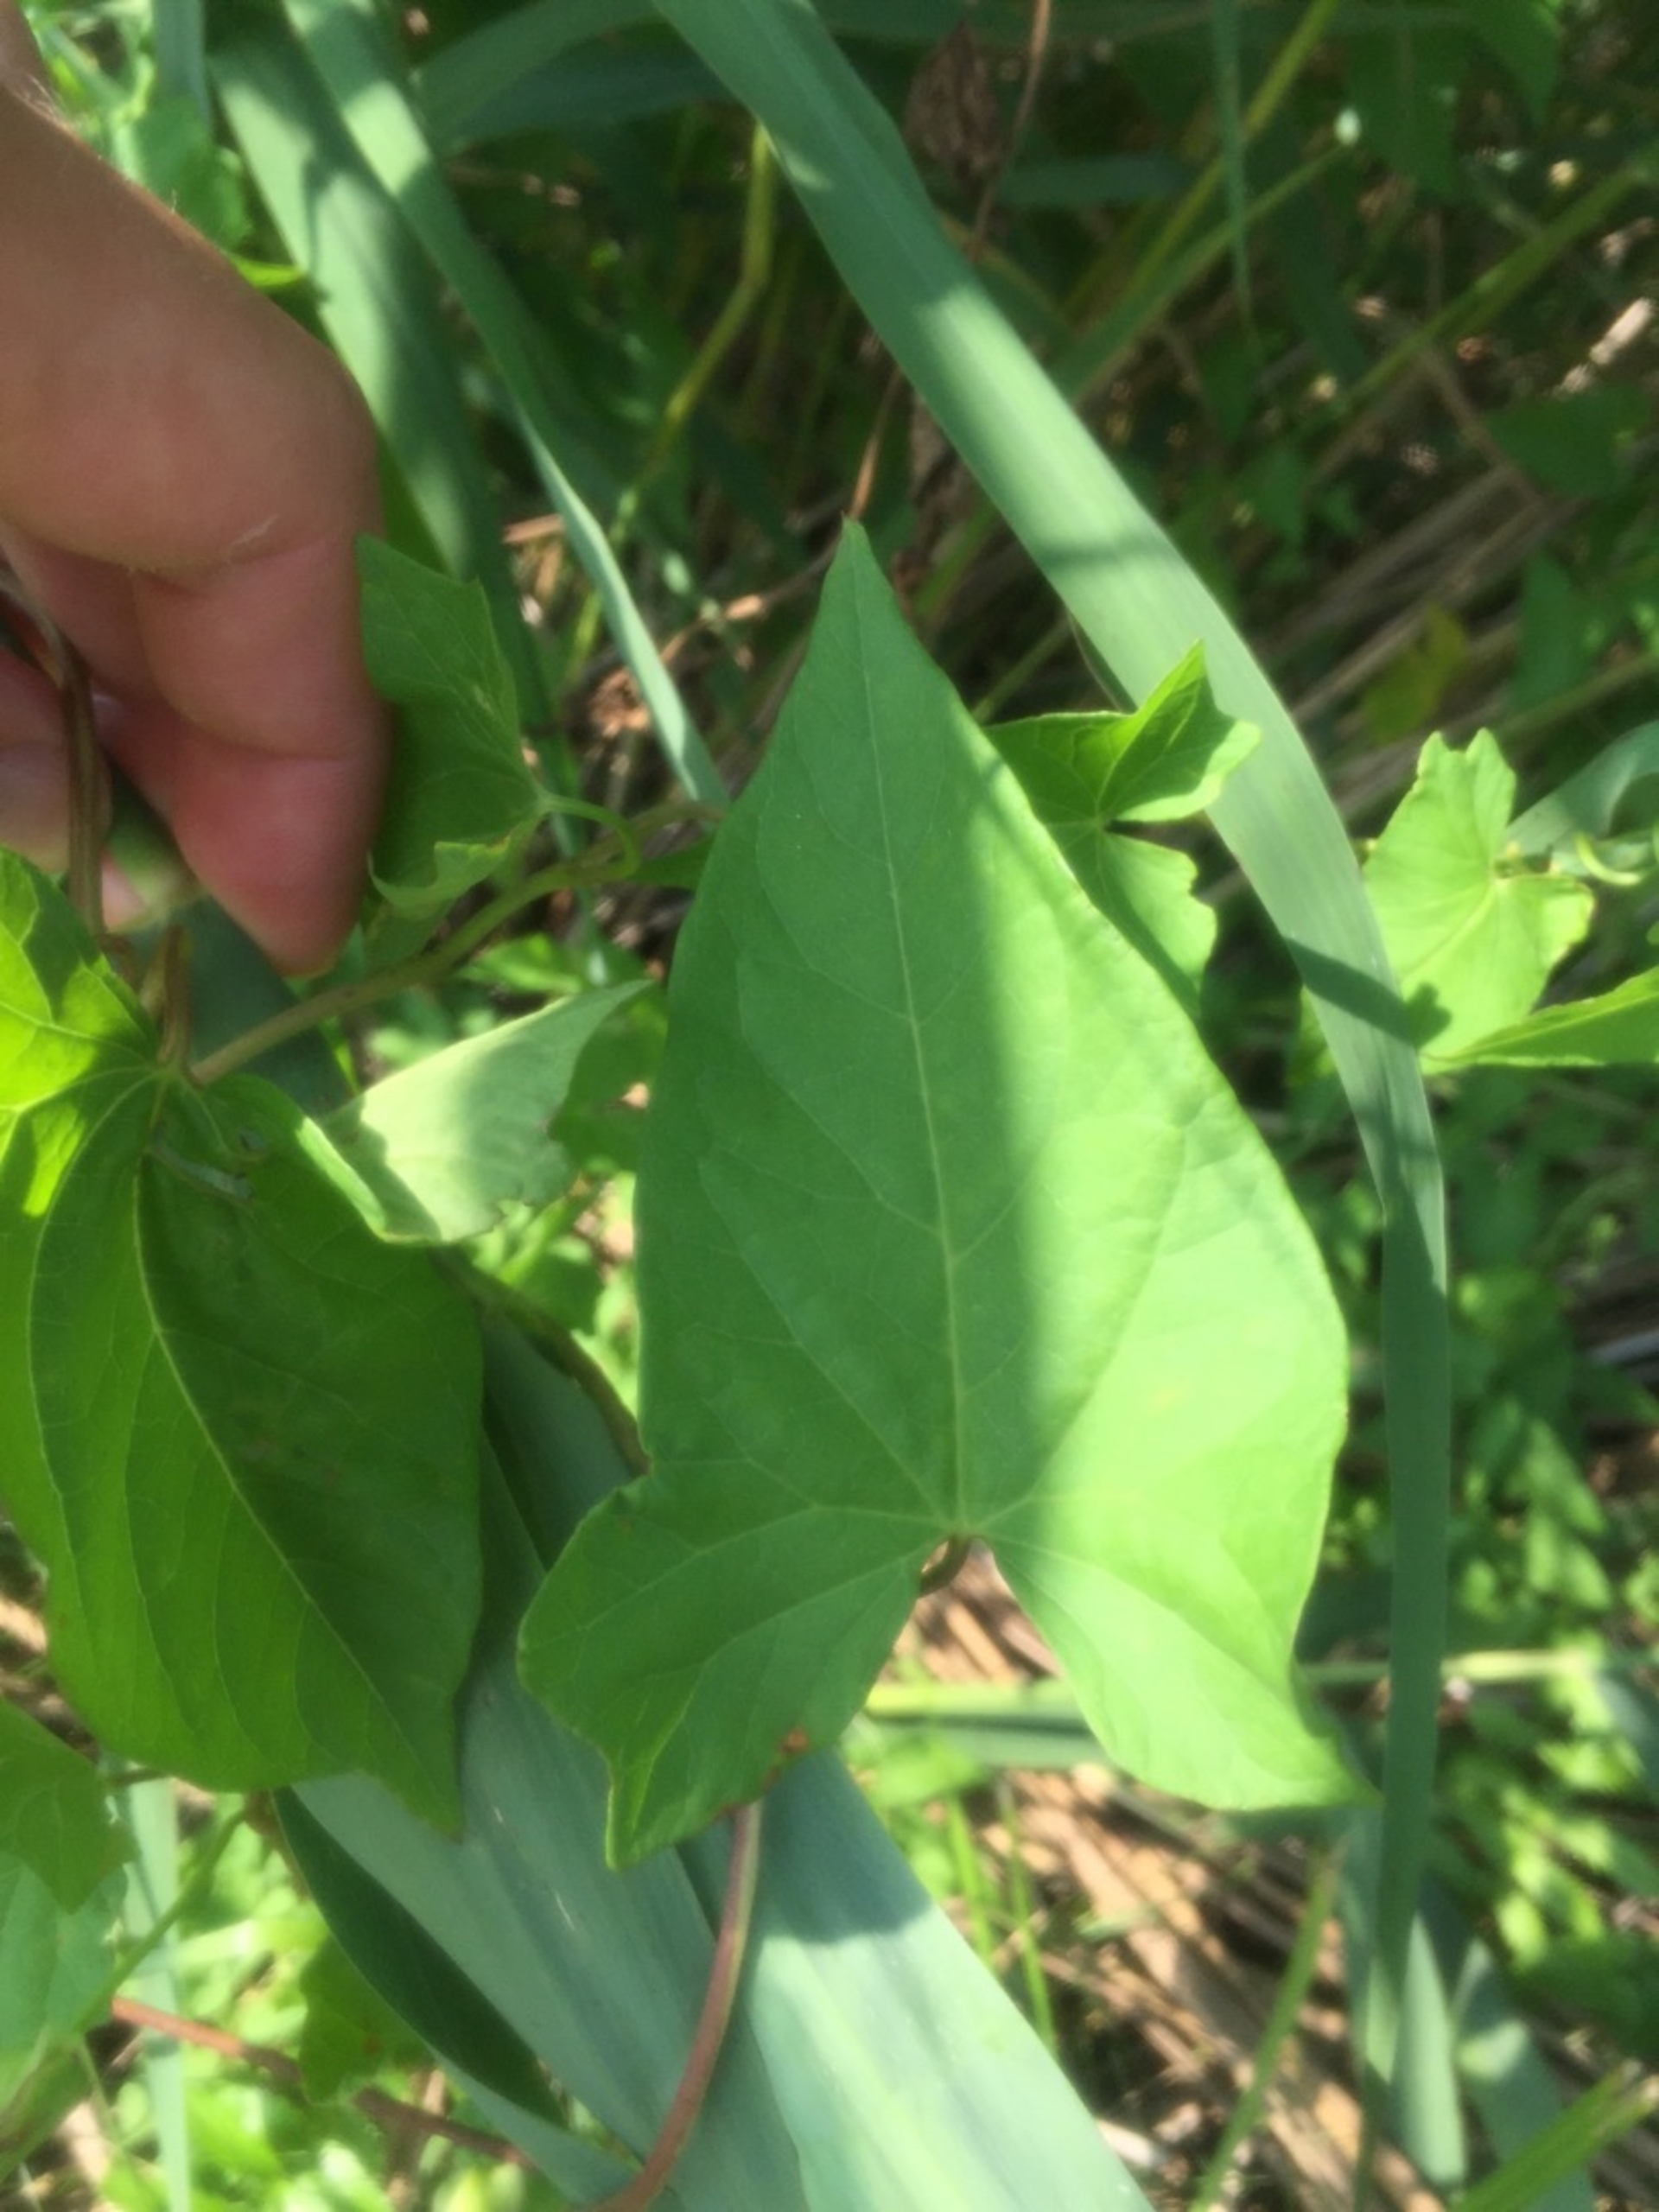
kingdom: Plantae
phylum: Tracheophyta
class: Magnoliopsida
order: Solanales
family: Convolvulaceae
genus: Calystegia
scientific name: Calystegia sepium
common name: Gærde-snerle
